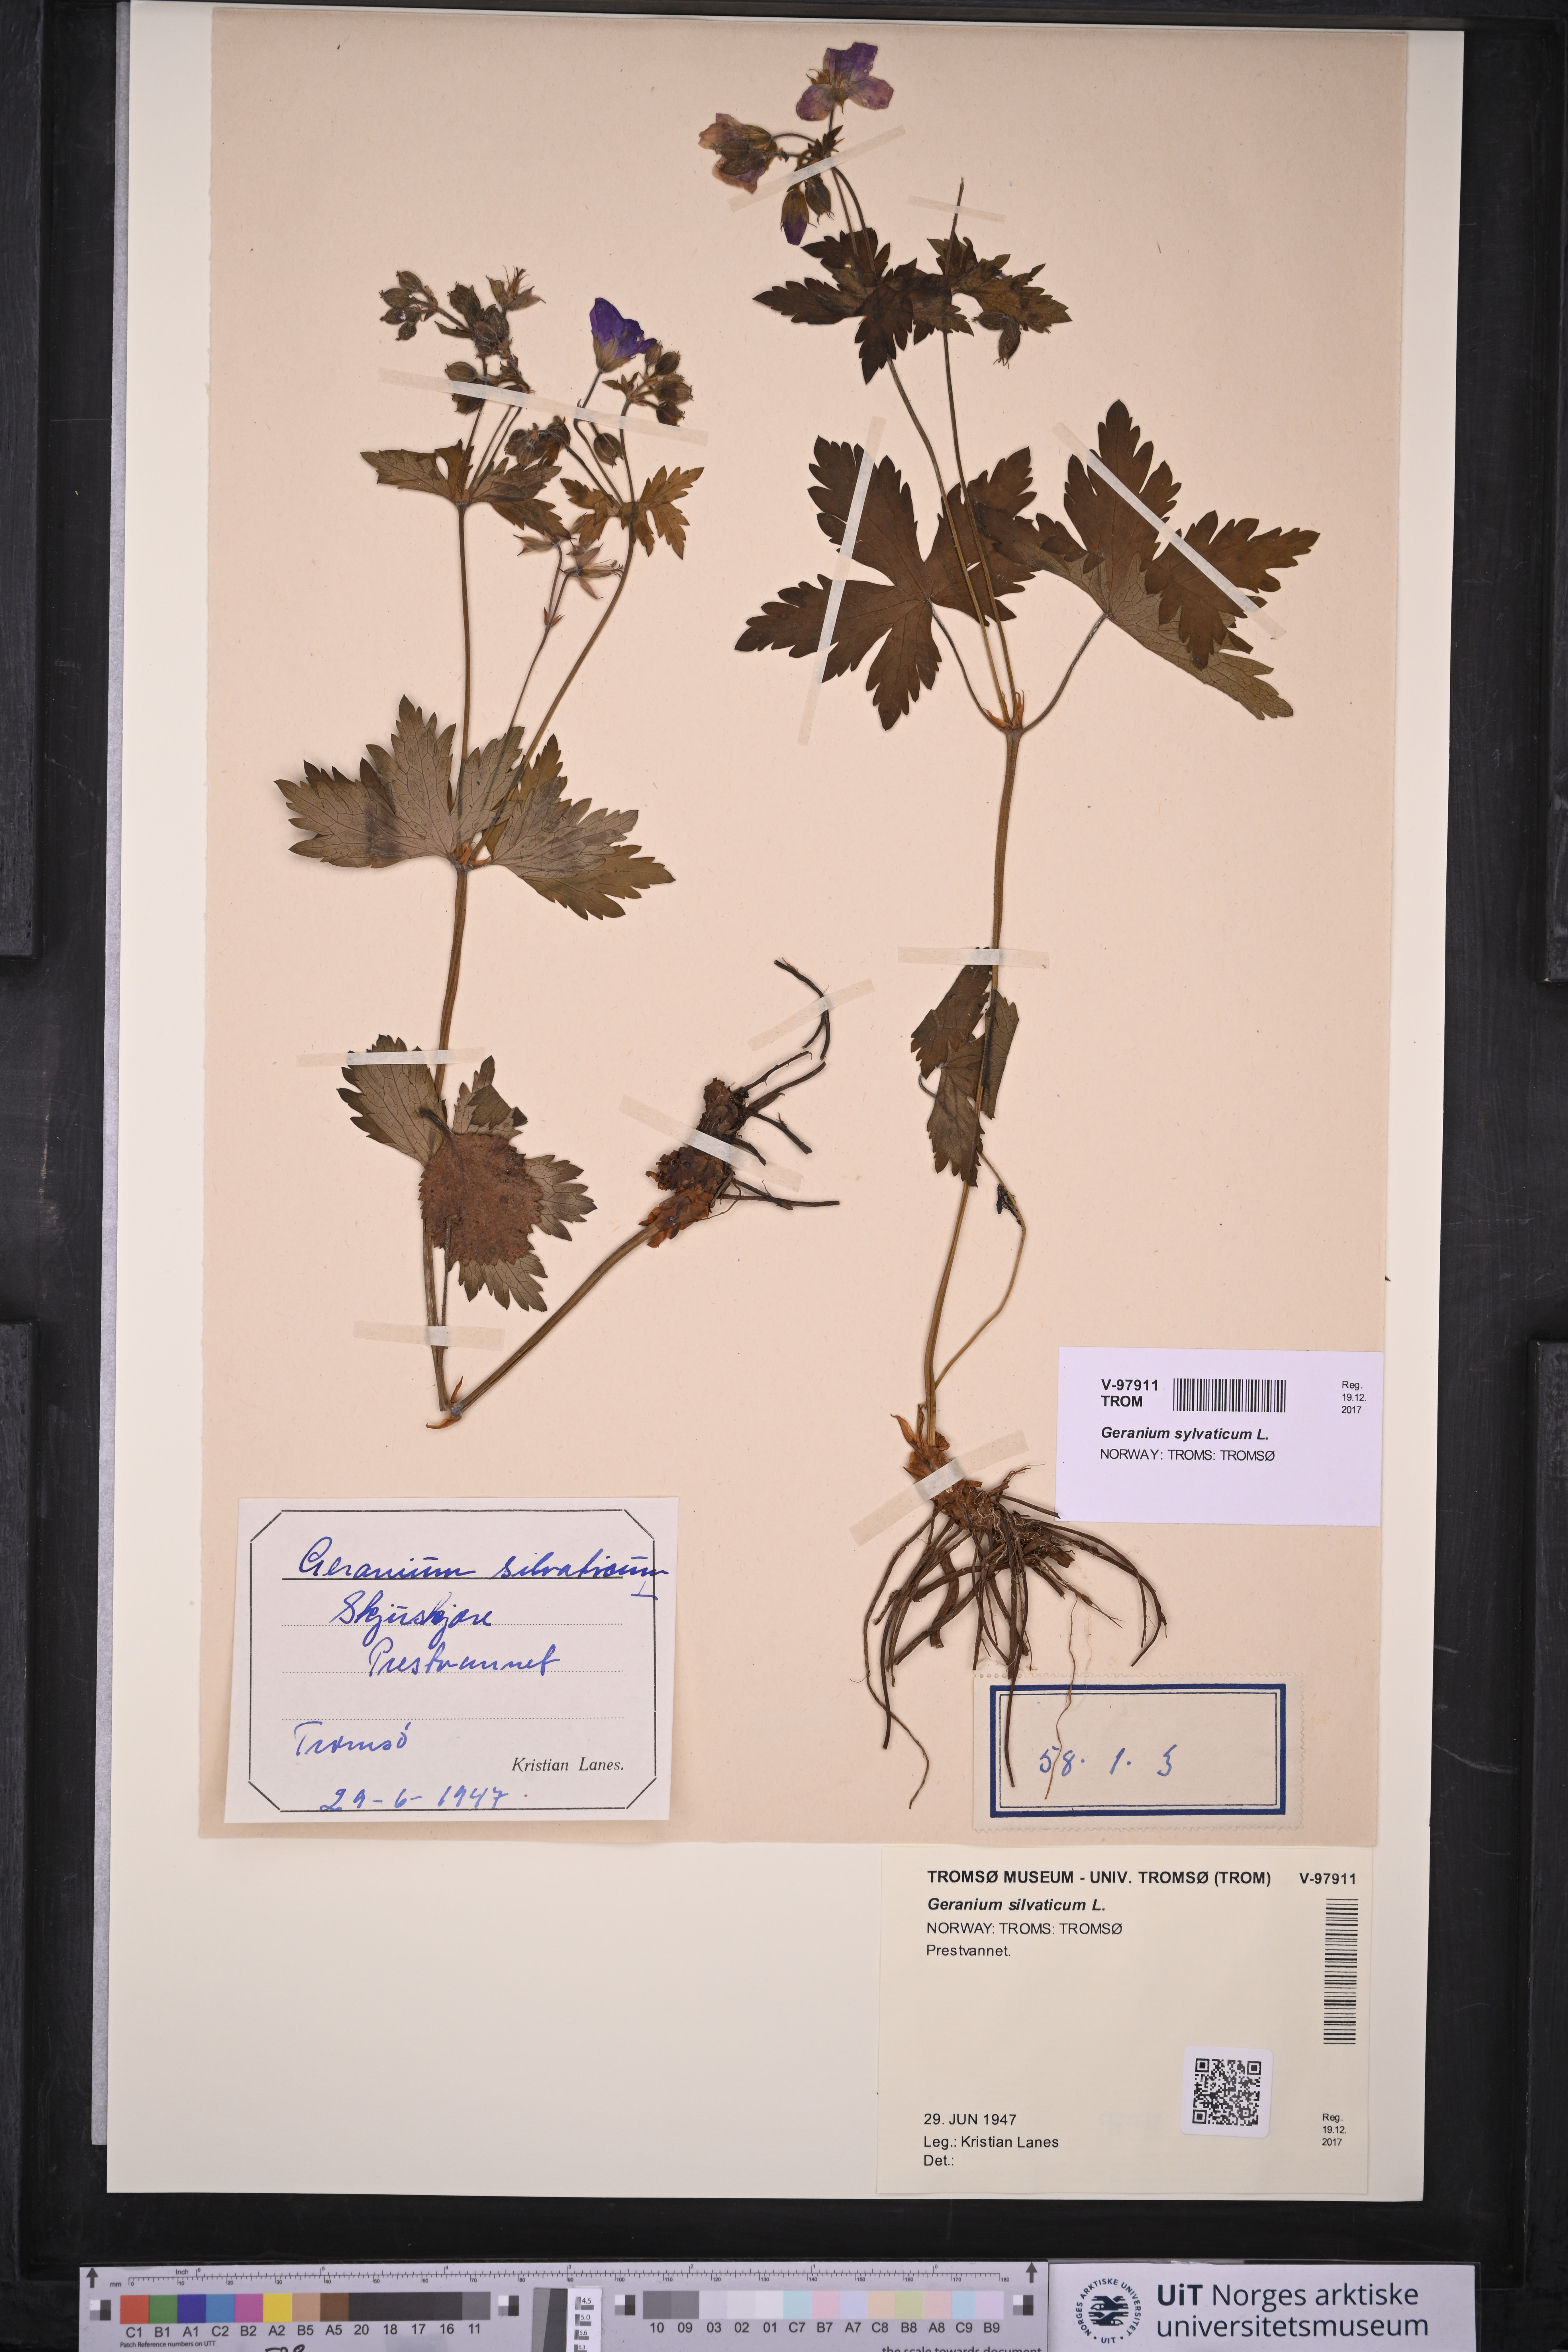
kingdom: Plantae
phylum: Tracheophyta
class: Magnoliopsida
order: Geraniales
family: Geraniaceae
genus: Geranium
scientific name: Geranium sylvaticum
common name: Wood crane's-bill
